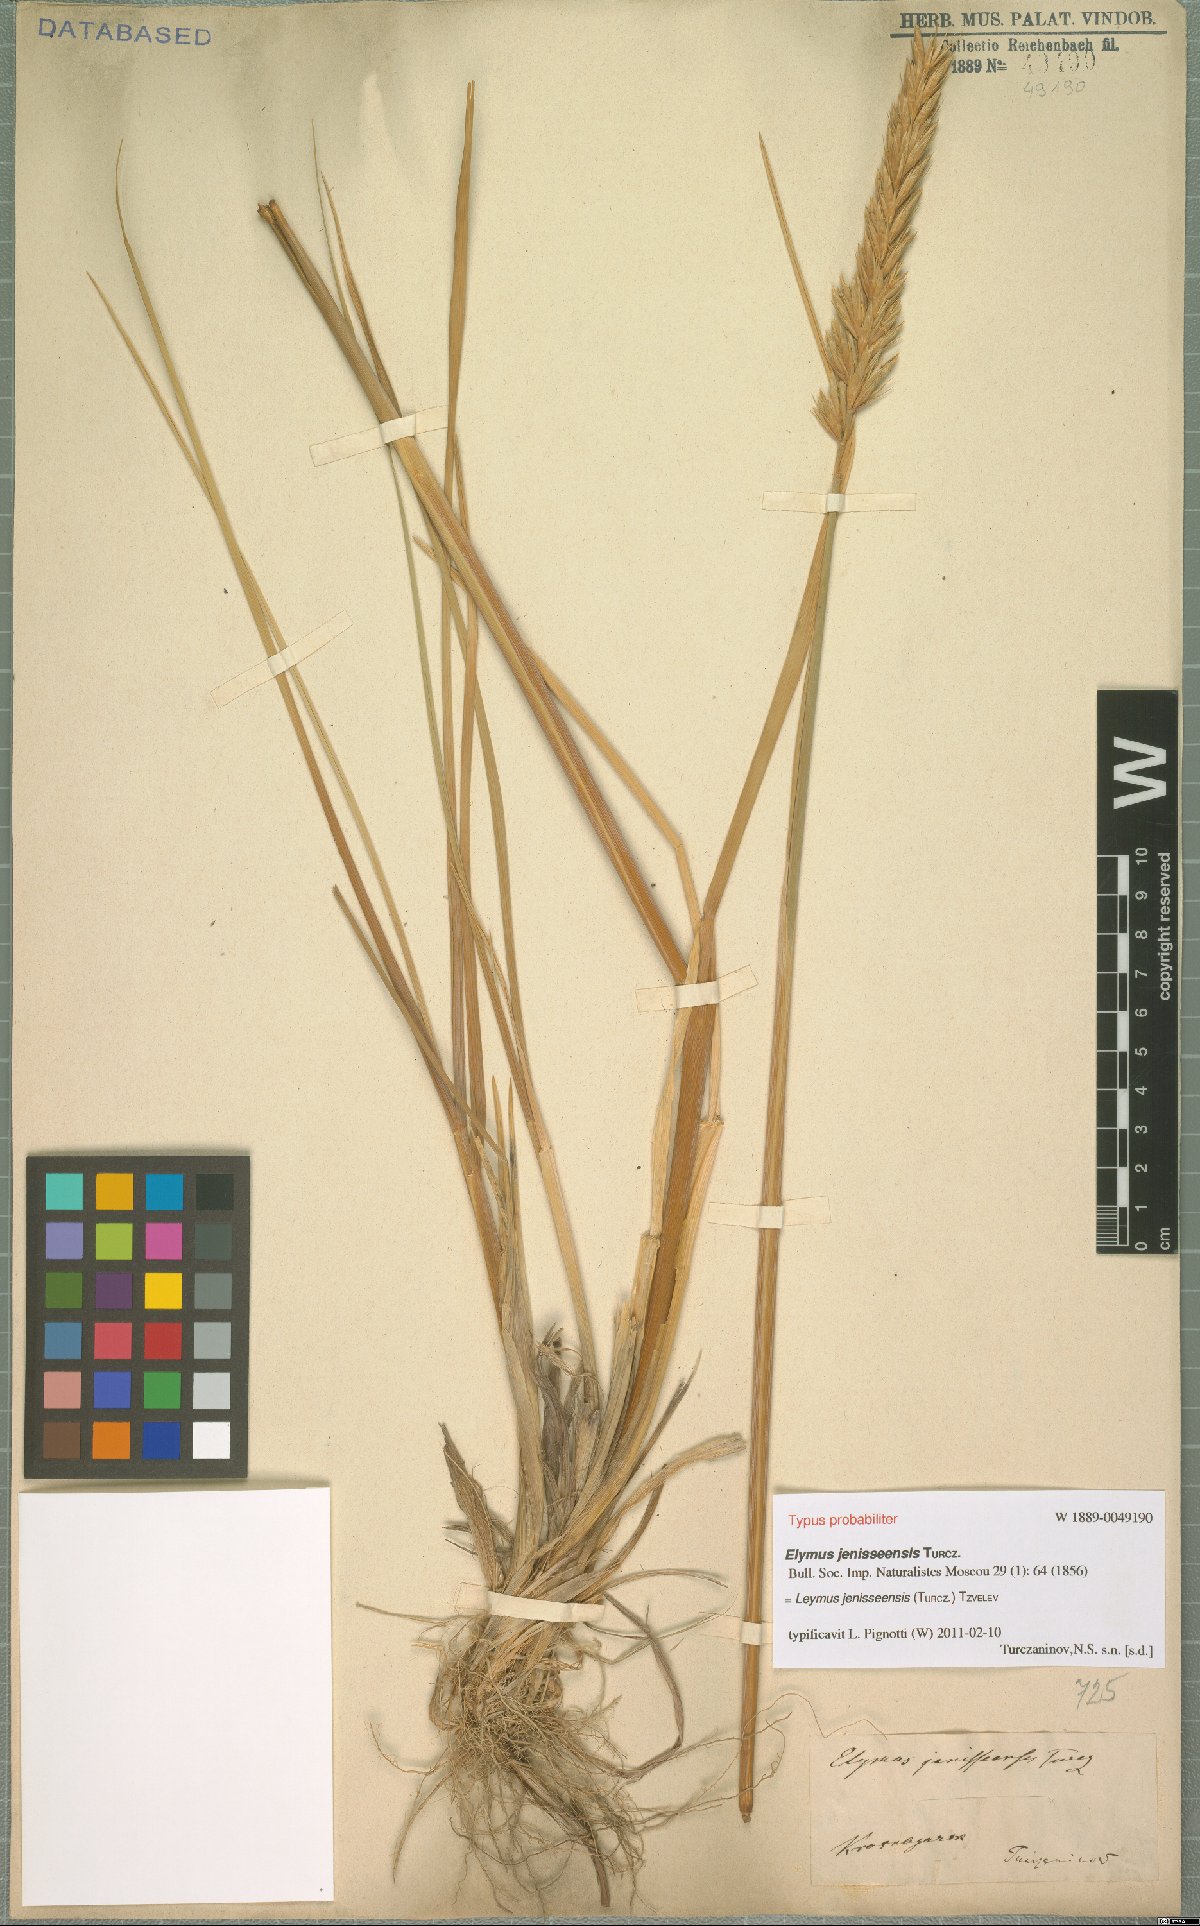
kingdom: Plantae
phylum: Tracheophyta
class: Liliopsida
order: Poales
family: Poaceae
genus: Leymus
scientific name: Leymus jenisseensis
